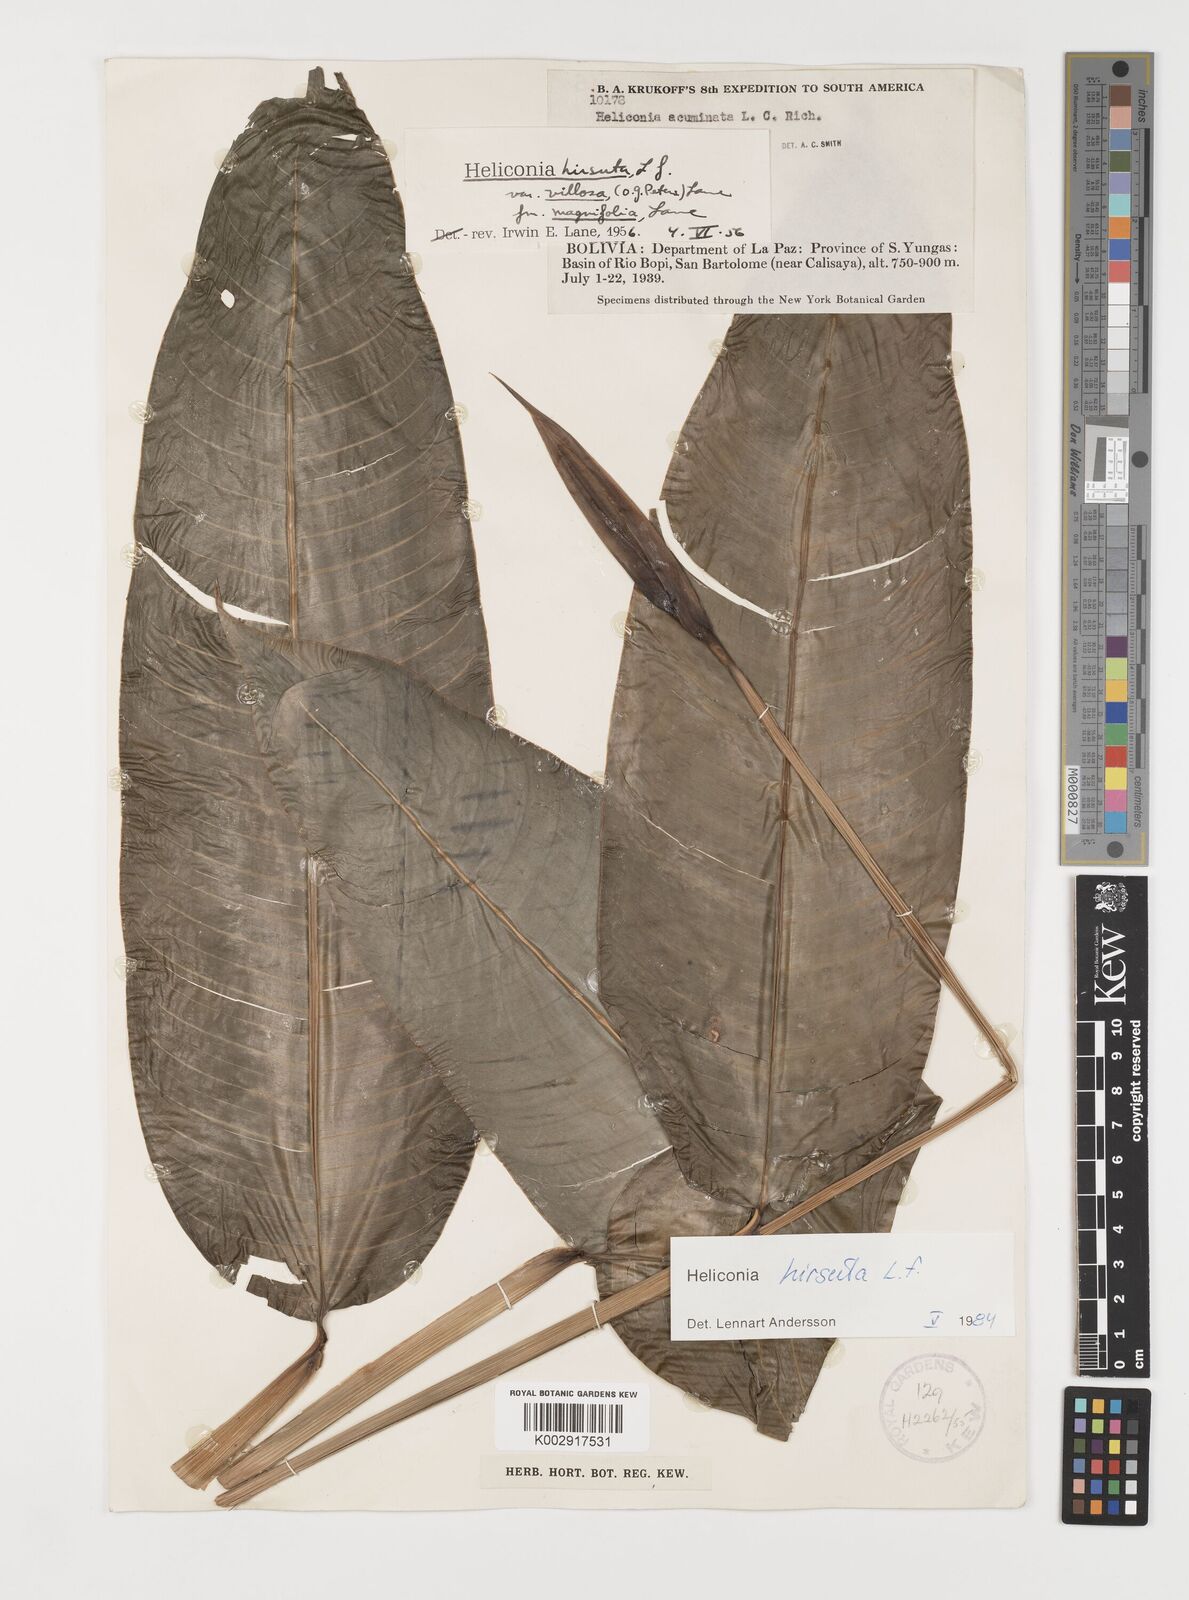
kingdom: Plantae
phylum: Tracheophyta
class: Liliopsida
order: Zingiberales
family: Heliconiaceae
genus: Heliconia
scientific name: Heliconia hirsuta
